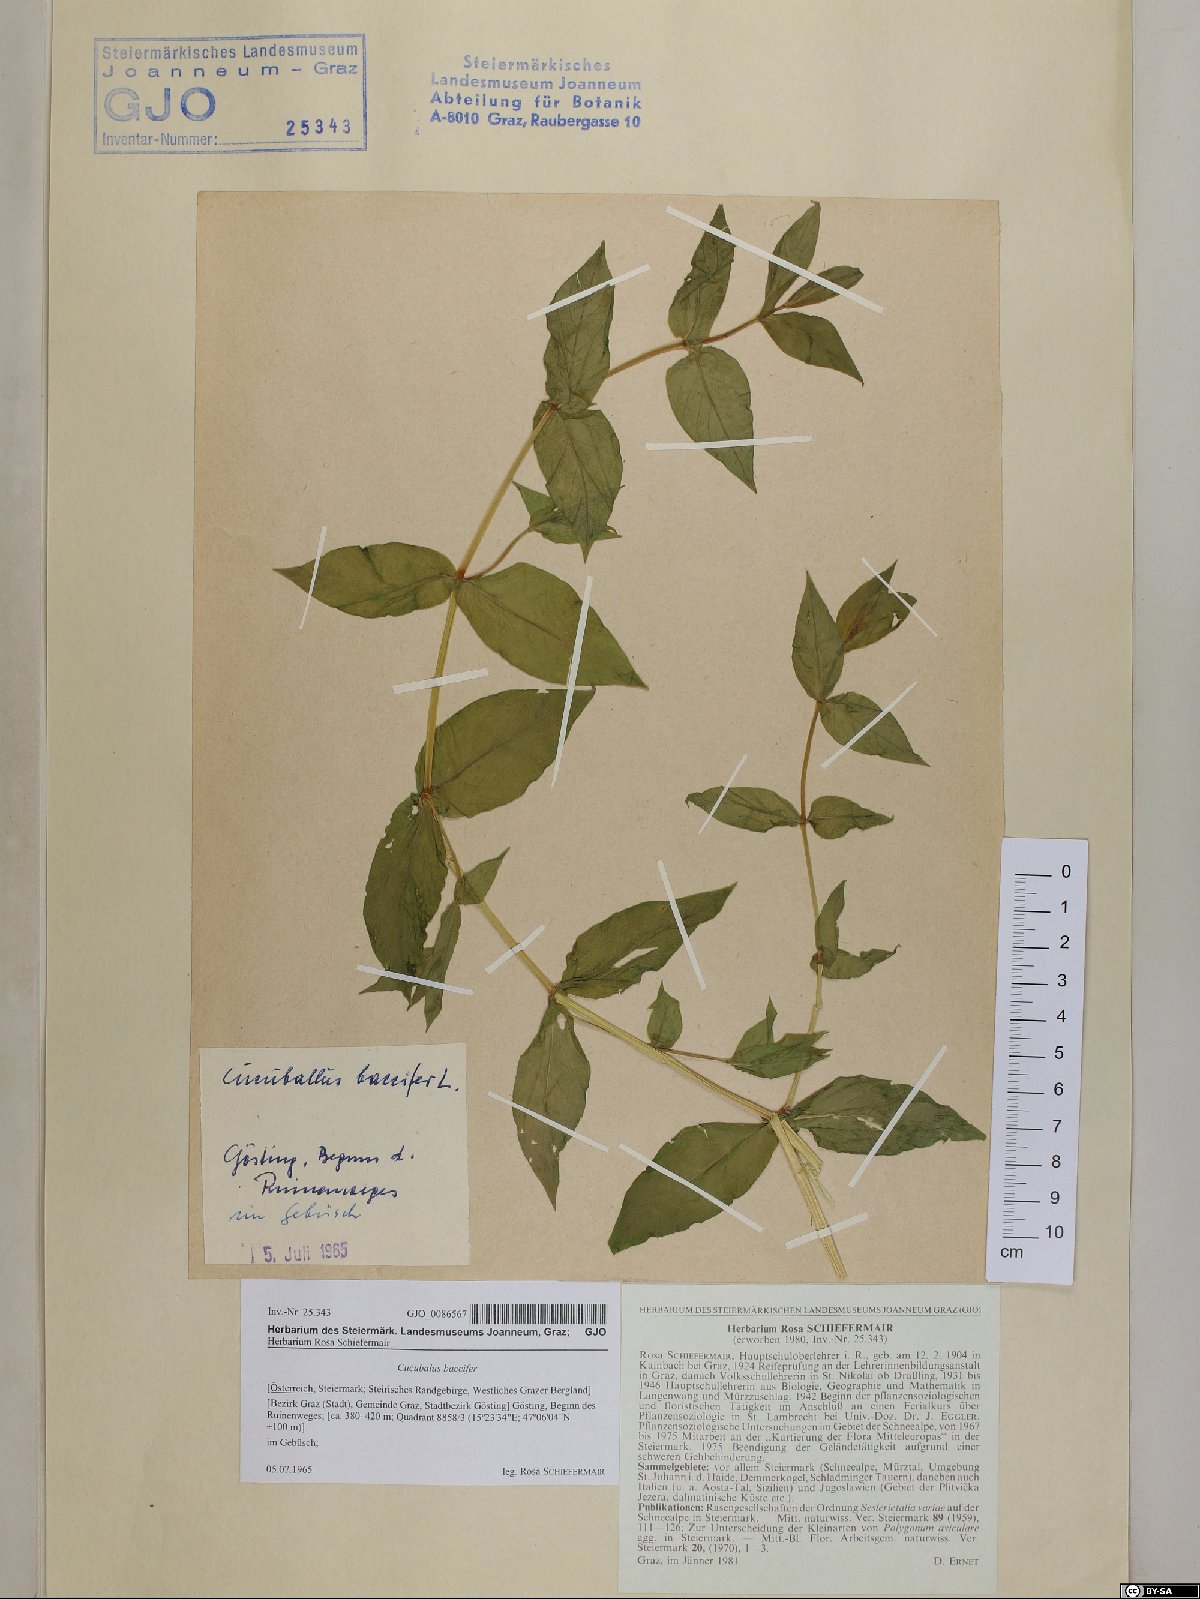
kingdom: Plantae
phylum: Tracheophyta
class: Magnoliopsida
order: Caryophyllales
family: Caryophyllaceae
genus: Silene
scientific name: Silene baccifera
